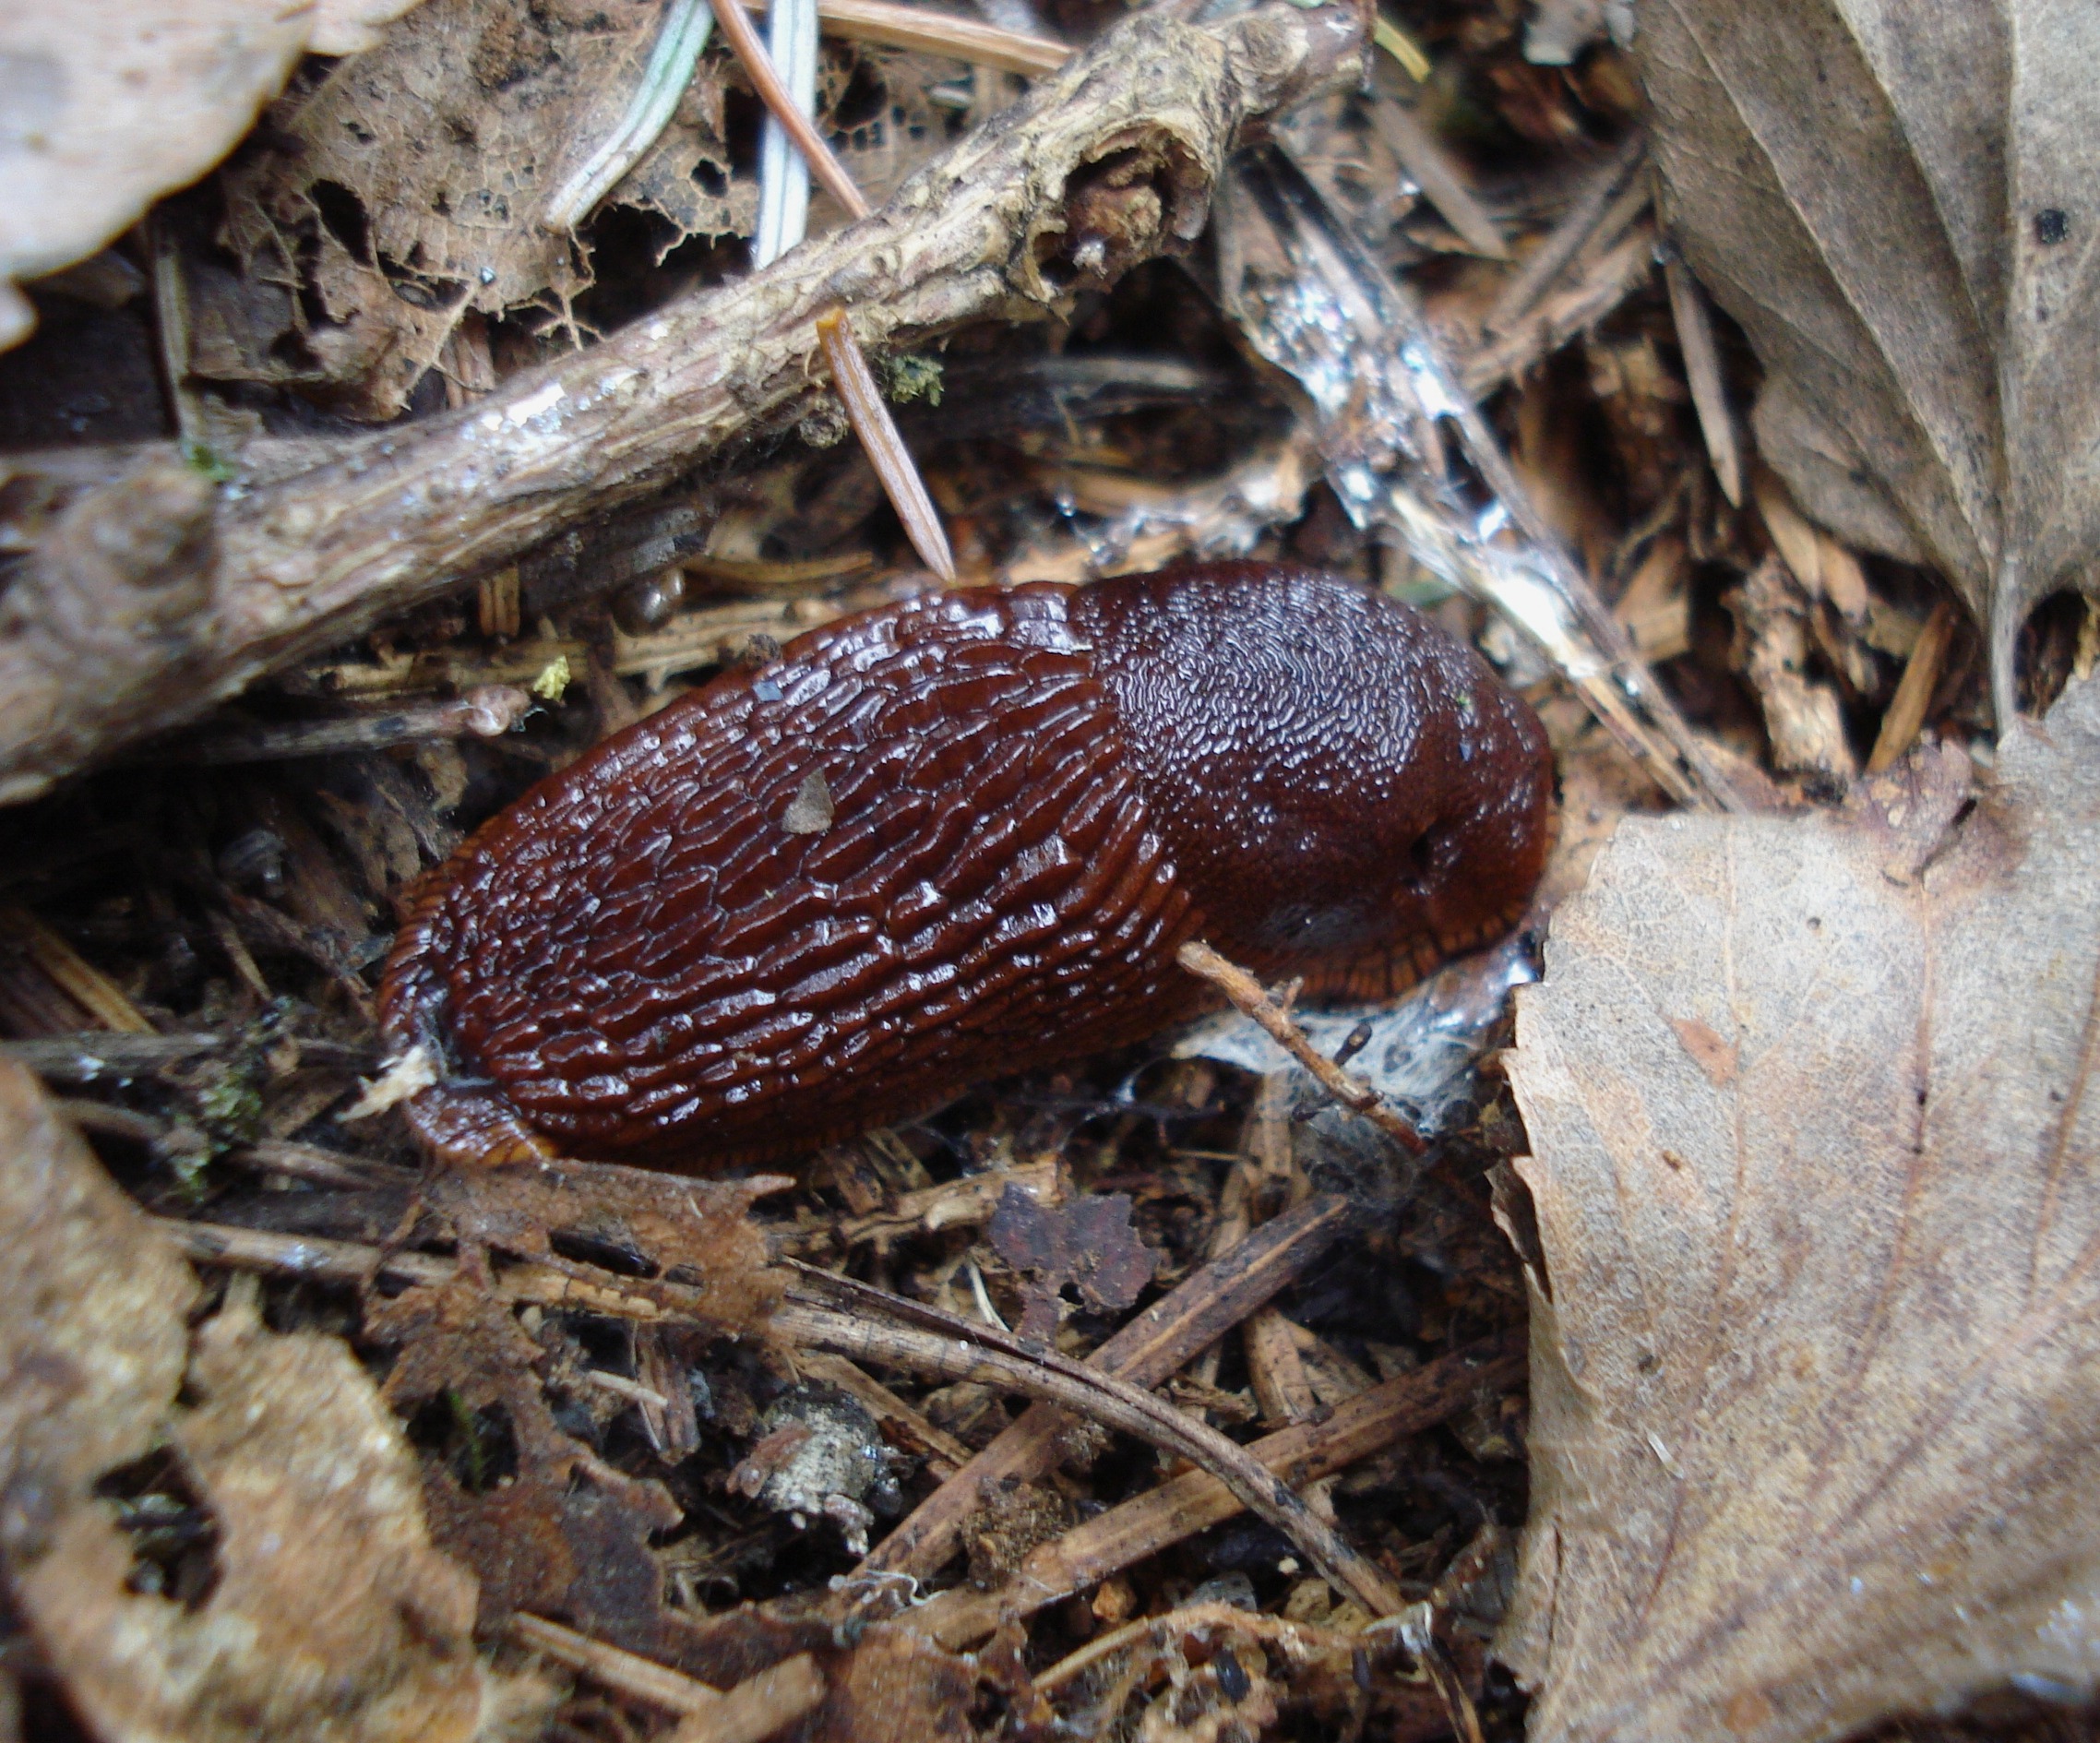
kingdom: Animalia
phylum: Mollusca
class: Gastropoda
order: Stylommatophora
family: Arionidae
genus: Arion
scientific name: Arion vulgaris
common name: Iberisk skovsnegl
